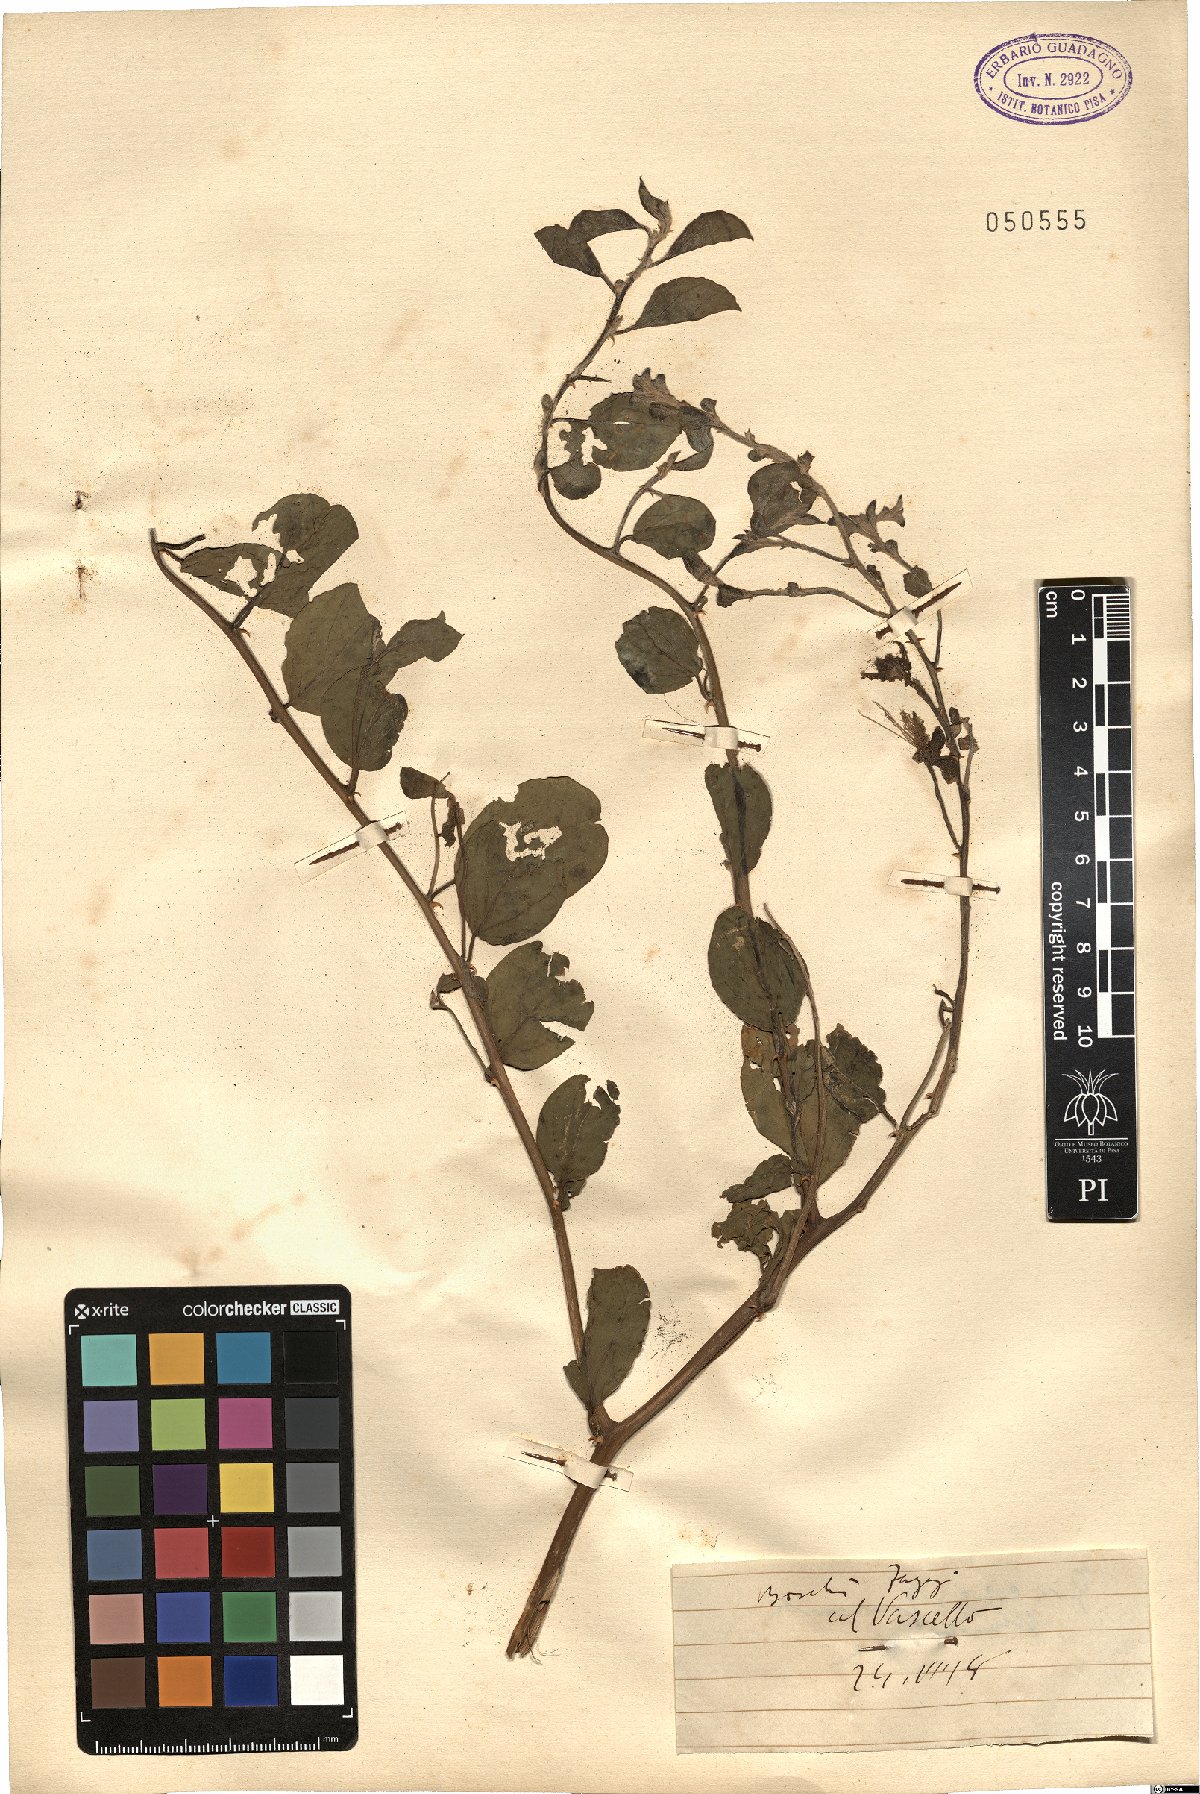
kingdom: Plantae
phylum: Tracheophyta
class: Magnoliopsida
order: Brassicales
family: Capparaceae
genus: Capparis
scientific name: Capparis
